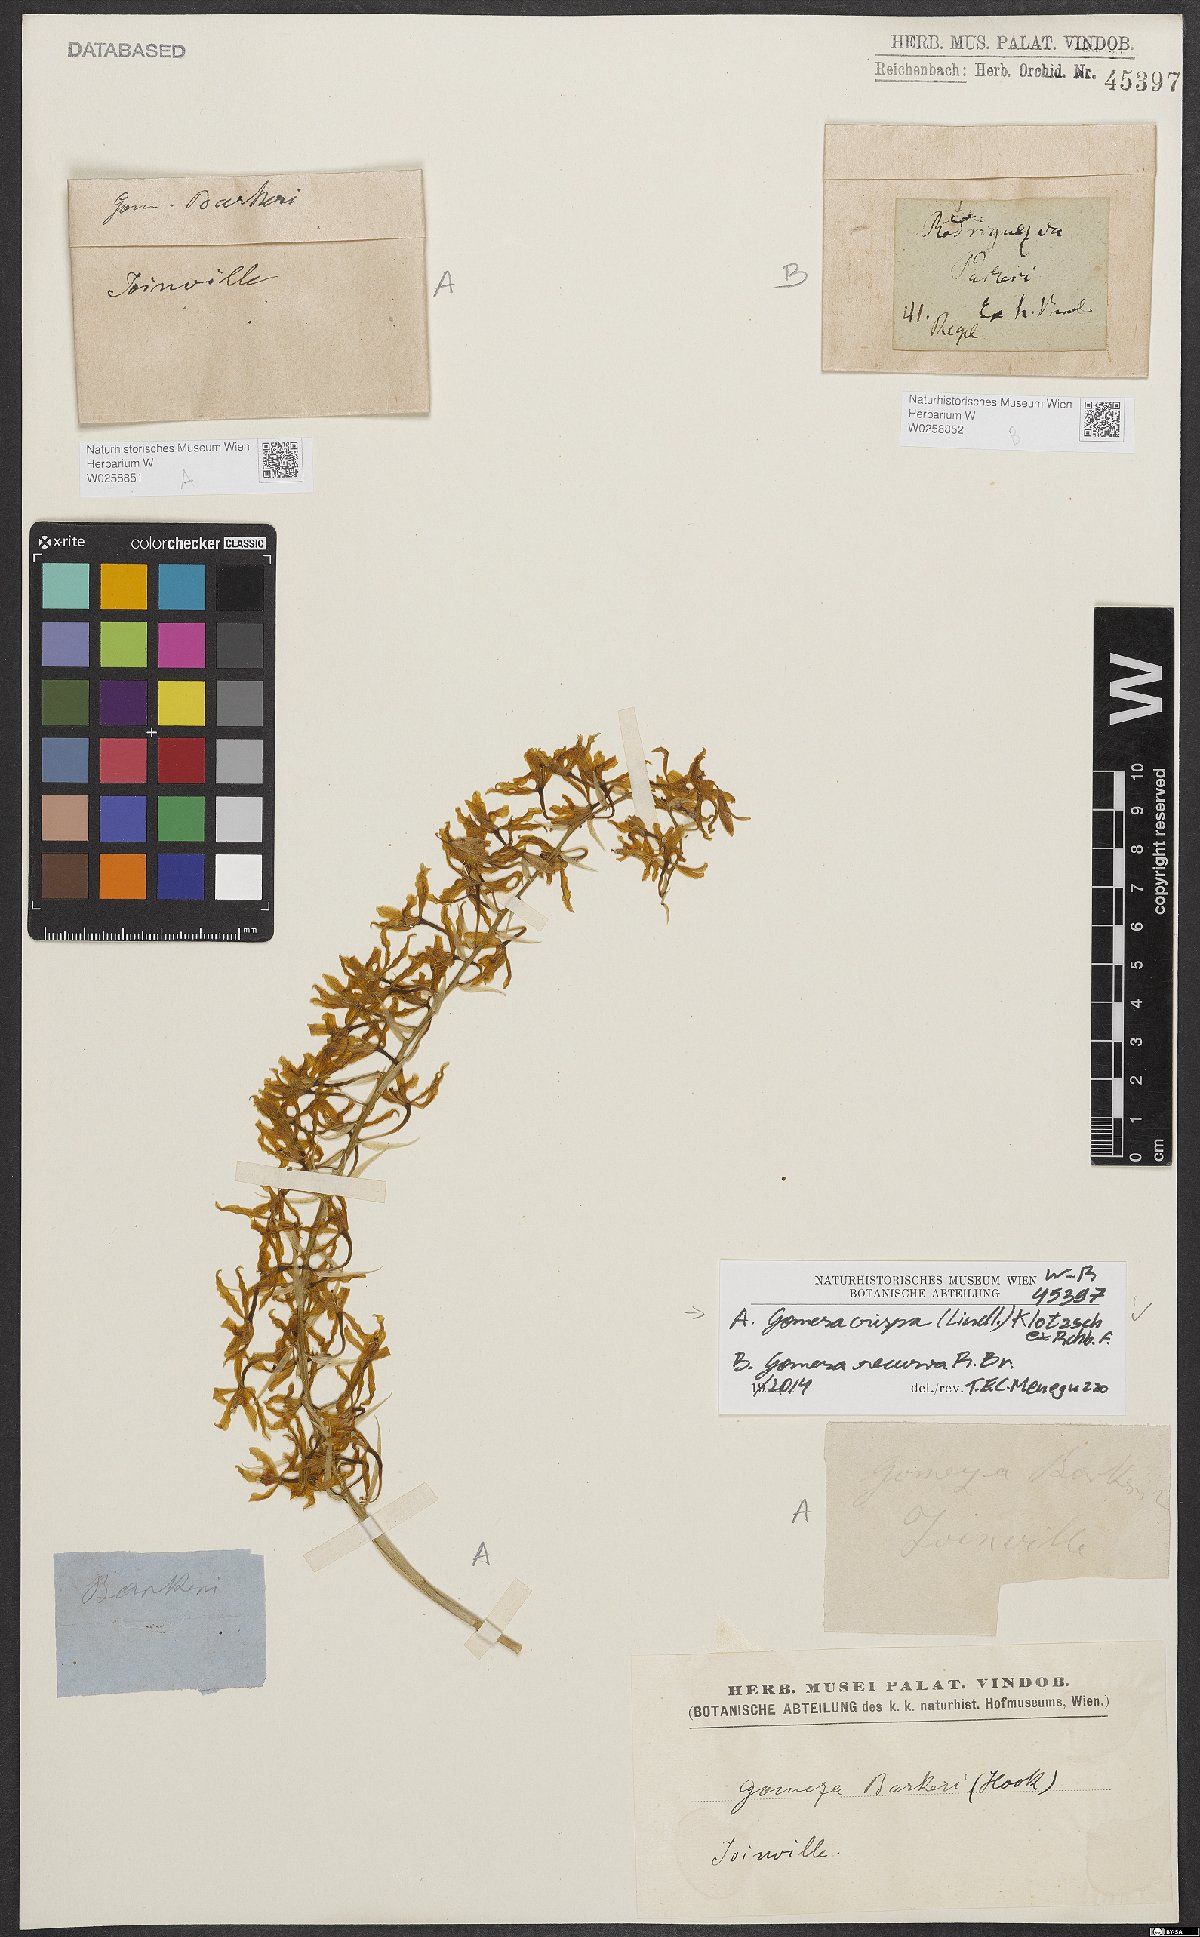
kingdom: Plantae
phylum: Tracheophyta
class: Liliopsida
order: Asparagales
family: Orchidaceae
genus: Gomesa
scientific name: Gomesa crispa
